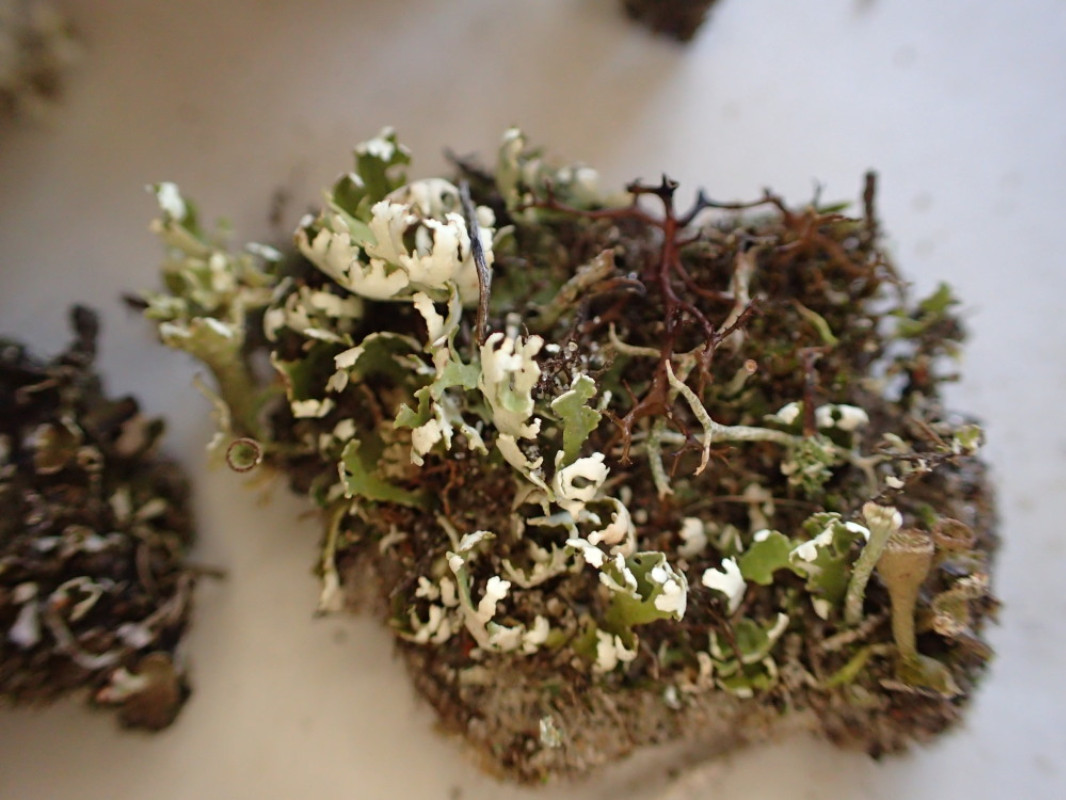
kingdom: Fungi
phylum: Ascomycota
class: Lecanoromycetes
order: Lecanorales
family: Cladoniaceae
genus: Cladonia
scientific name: Cladonia foliacea
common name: fliget bægerlav
